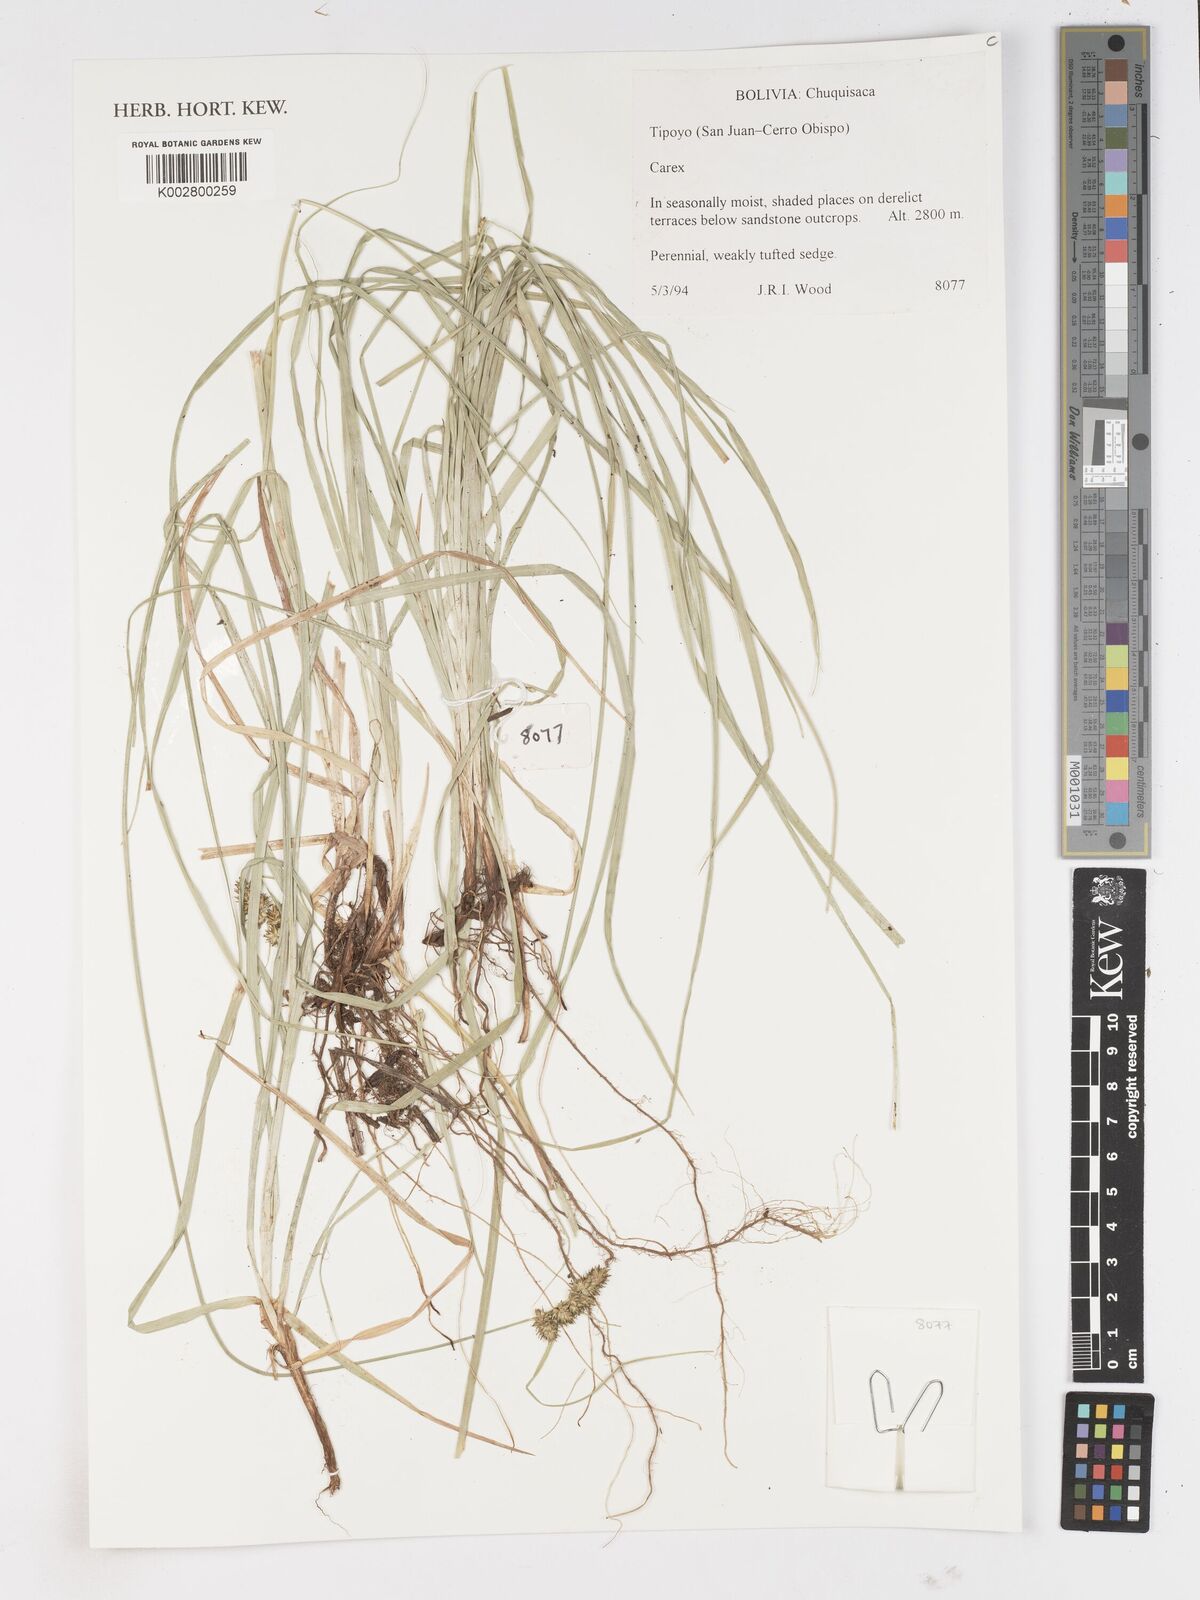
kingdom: Plantae
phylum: Tracheophyta
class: Liliopsida
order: Poales
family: Cyperaceae
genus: Carex
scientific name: Carex
